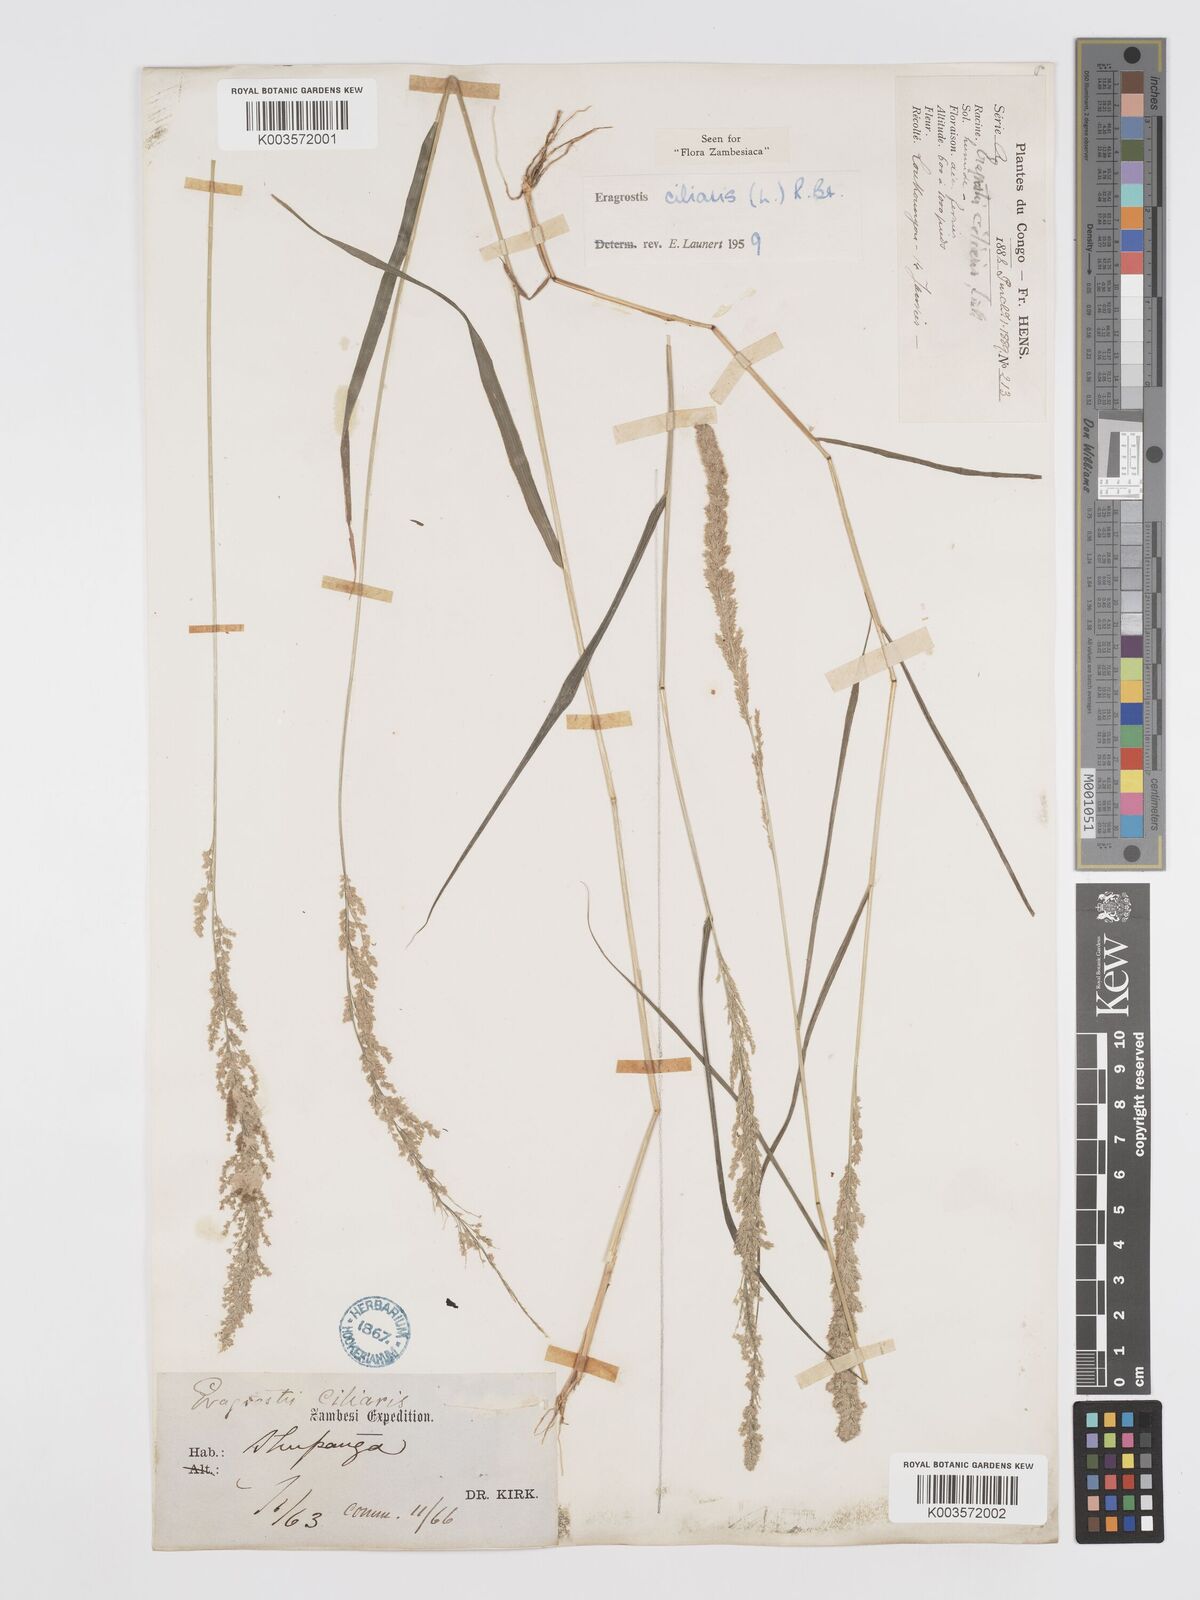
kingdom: Plantae
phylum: Tracheophyta
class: Liliopsida
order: Poales
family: Poaceae
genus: Eragrostis
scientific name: Eragrostis ciliaris
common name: Gophertail lovegrass
